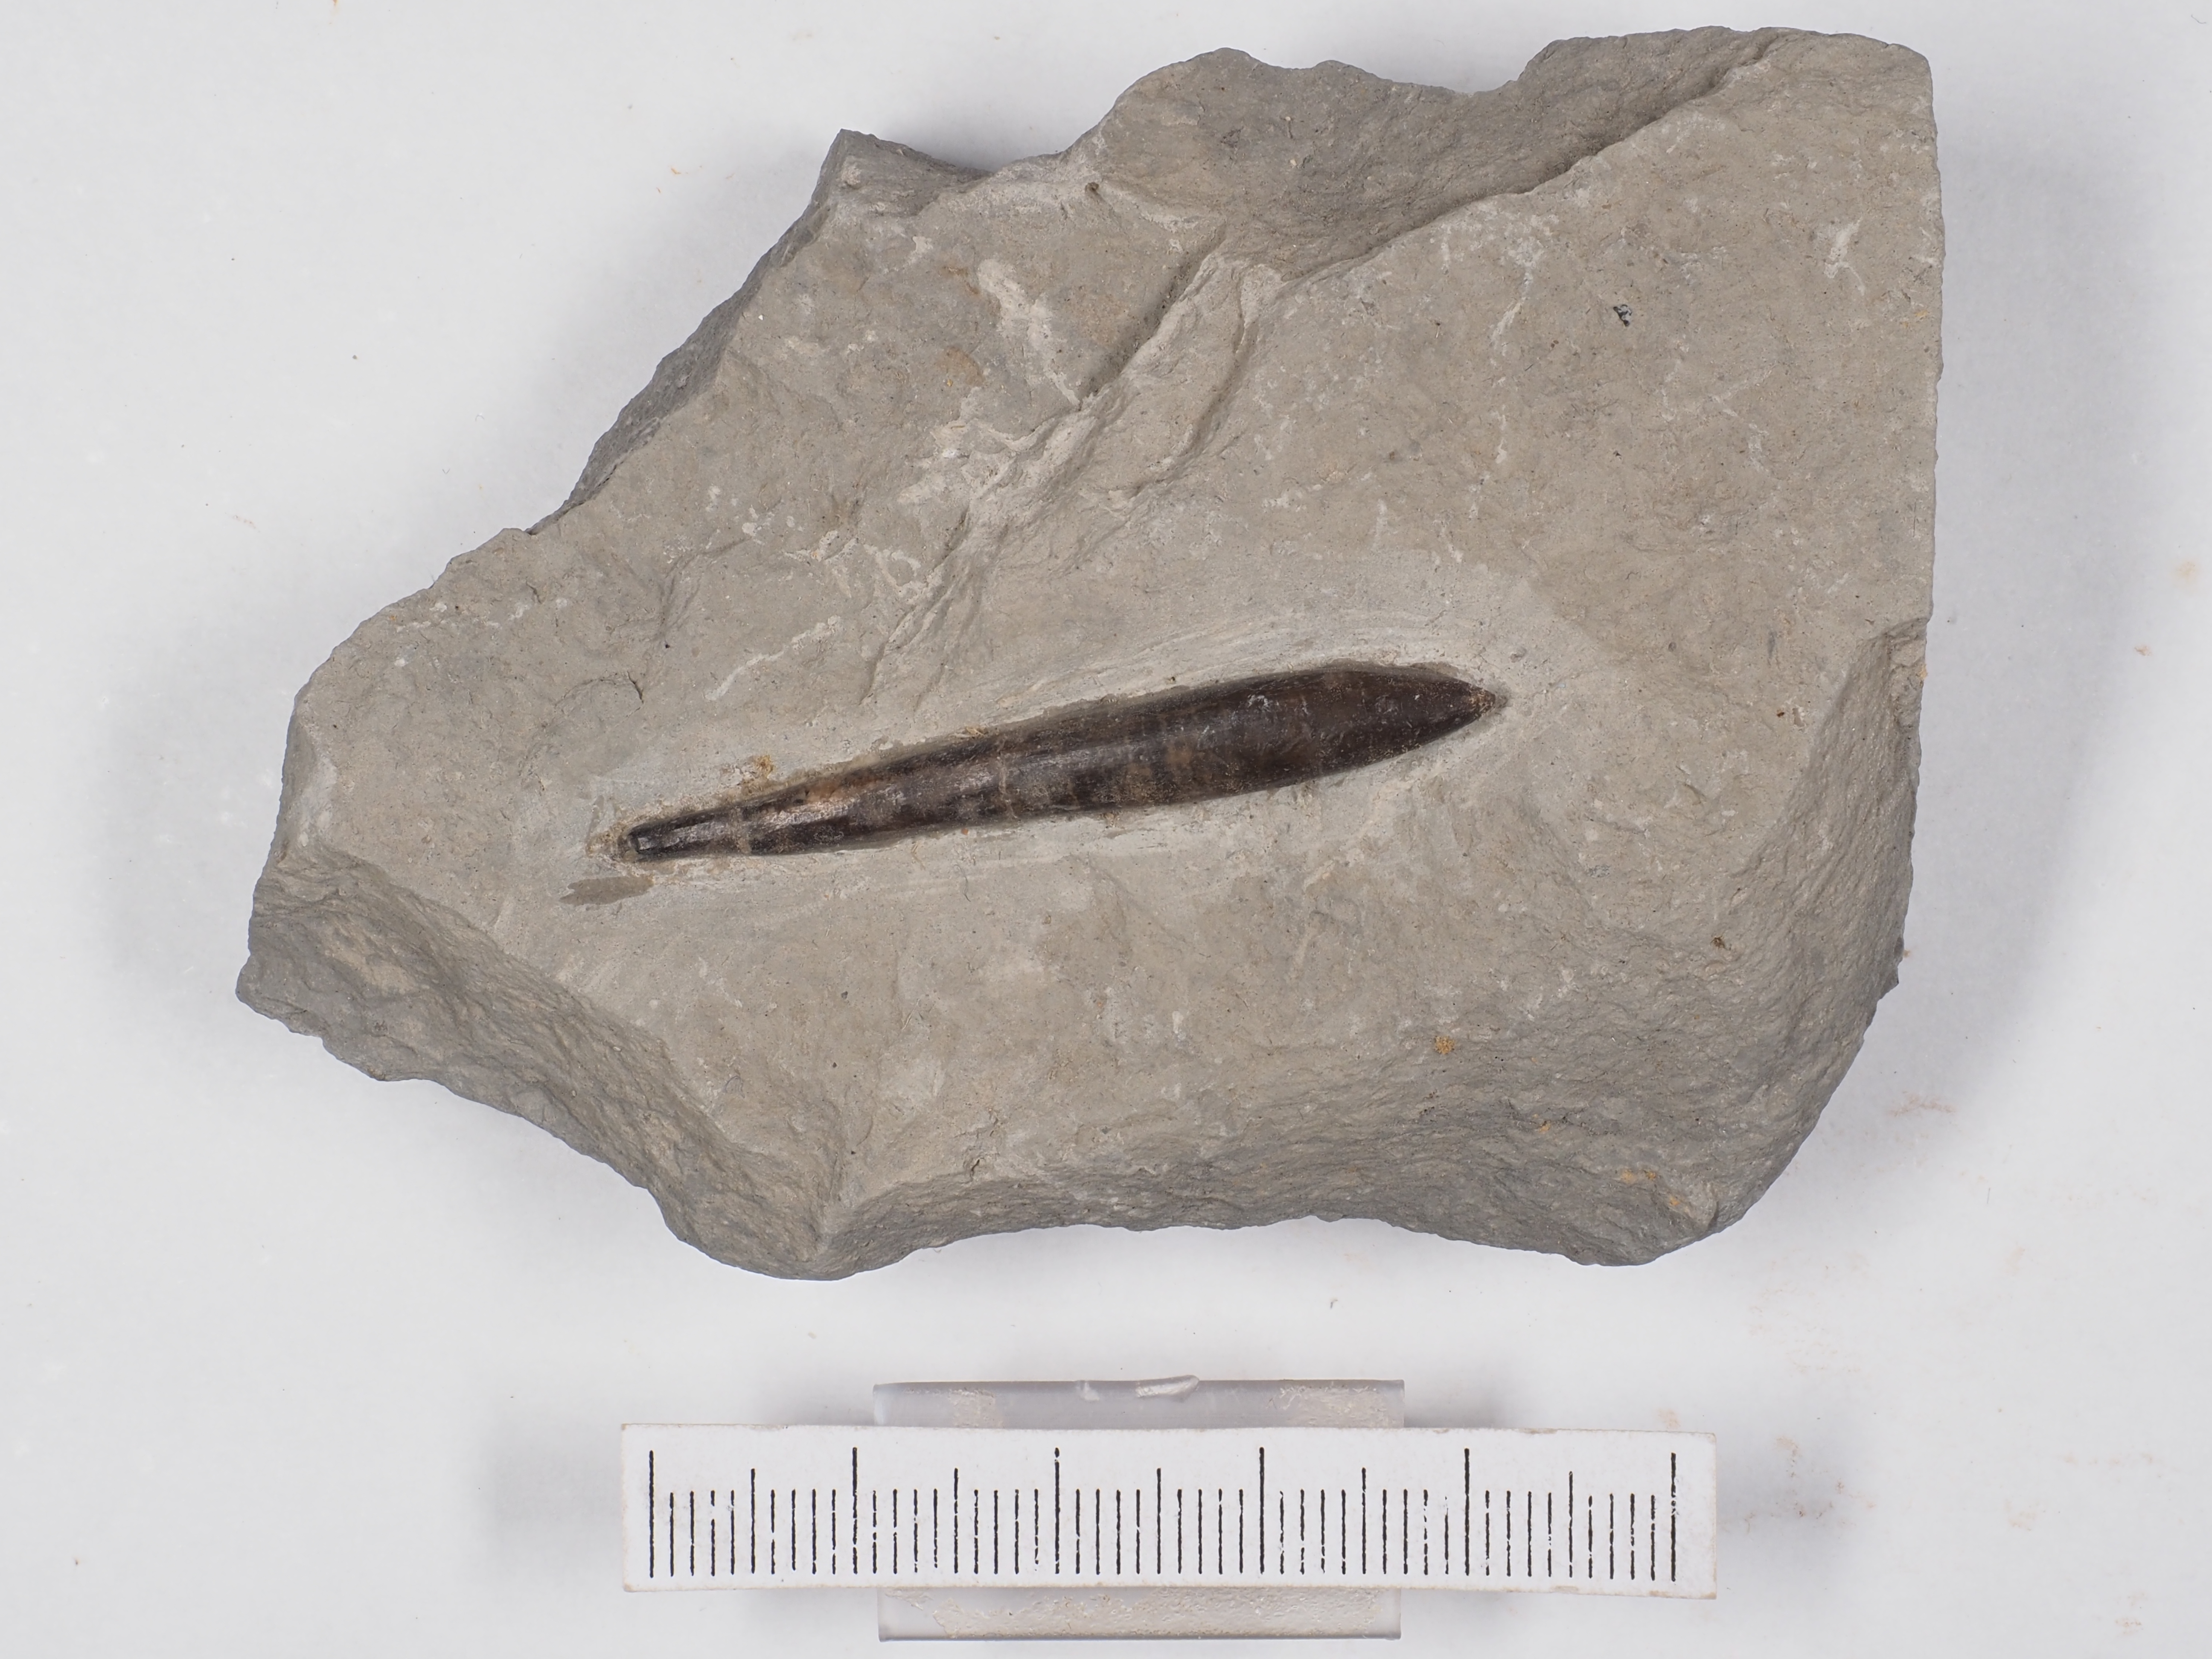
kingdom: Animalia
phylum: Mollusca
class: Cephalopoda
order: Belemnitida
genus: Subhastites
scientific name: Subhastites pseudoclavatus
